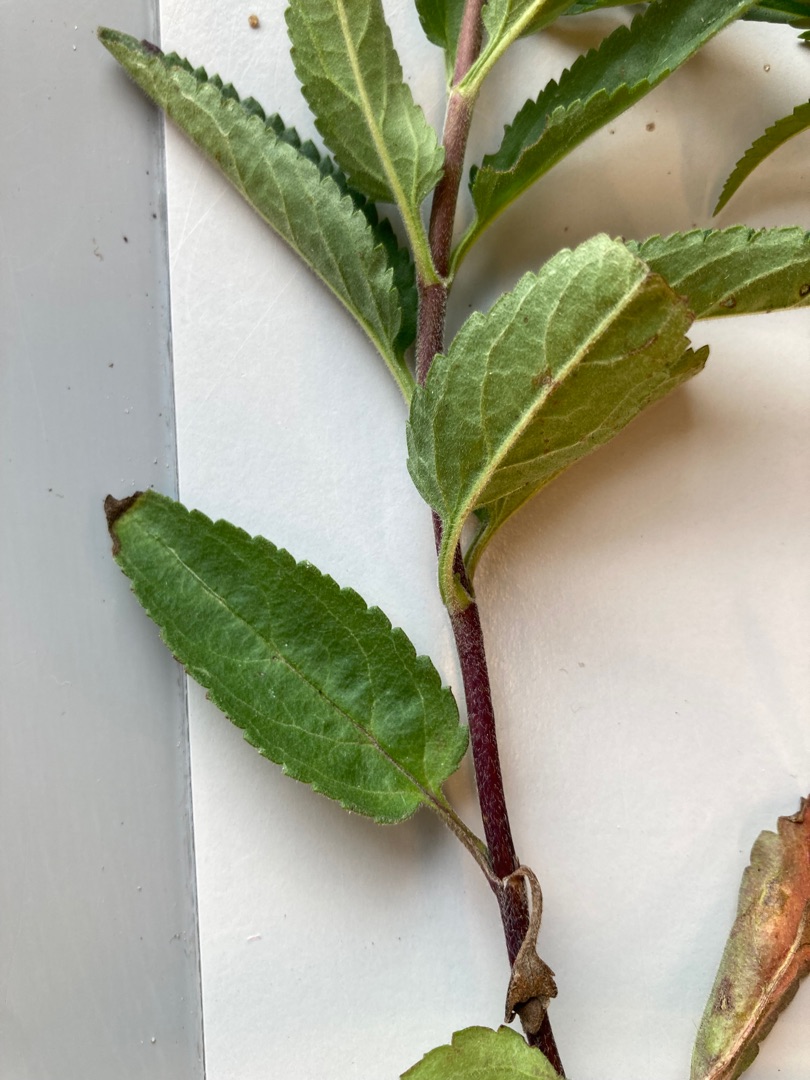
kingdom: Plantae
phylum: Tracheophyta
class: Magnoliopsida
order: Lamiales
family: Plantaginaceae
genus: Veronica
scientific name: Veronica longifolia
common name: Langbladet ærenpris
